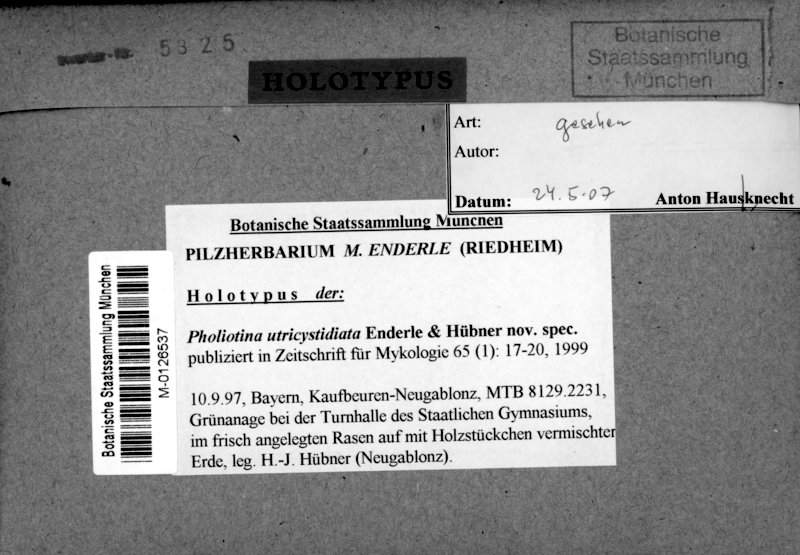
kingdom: Fungi
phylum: Basidiomycota
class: Agaricomycetes
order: Agaricales
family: Bolbitiaceae
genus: Conocybe
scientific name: Conocybe utricystidiata
